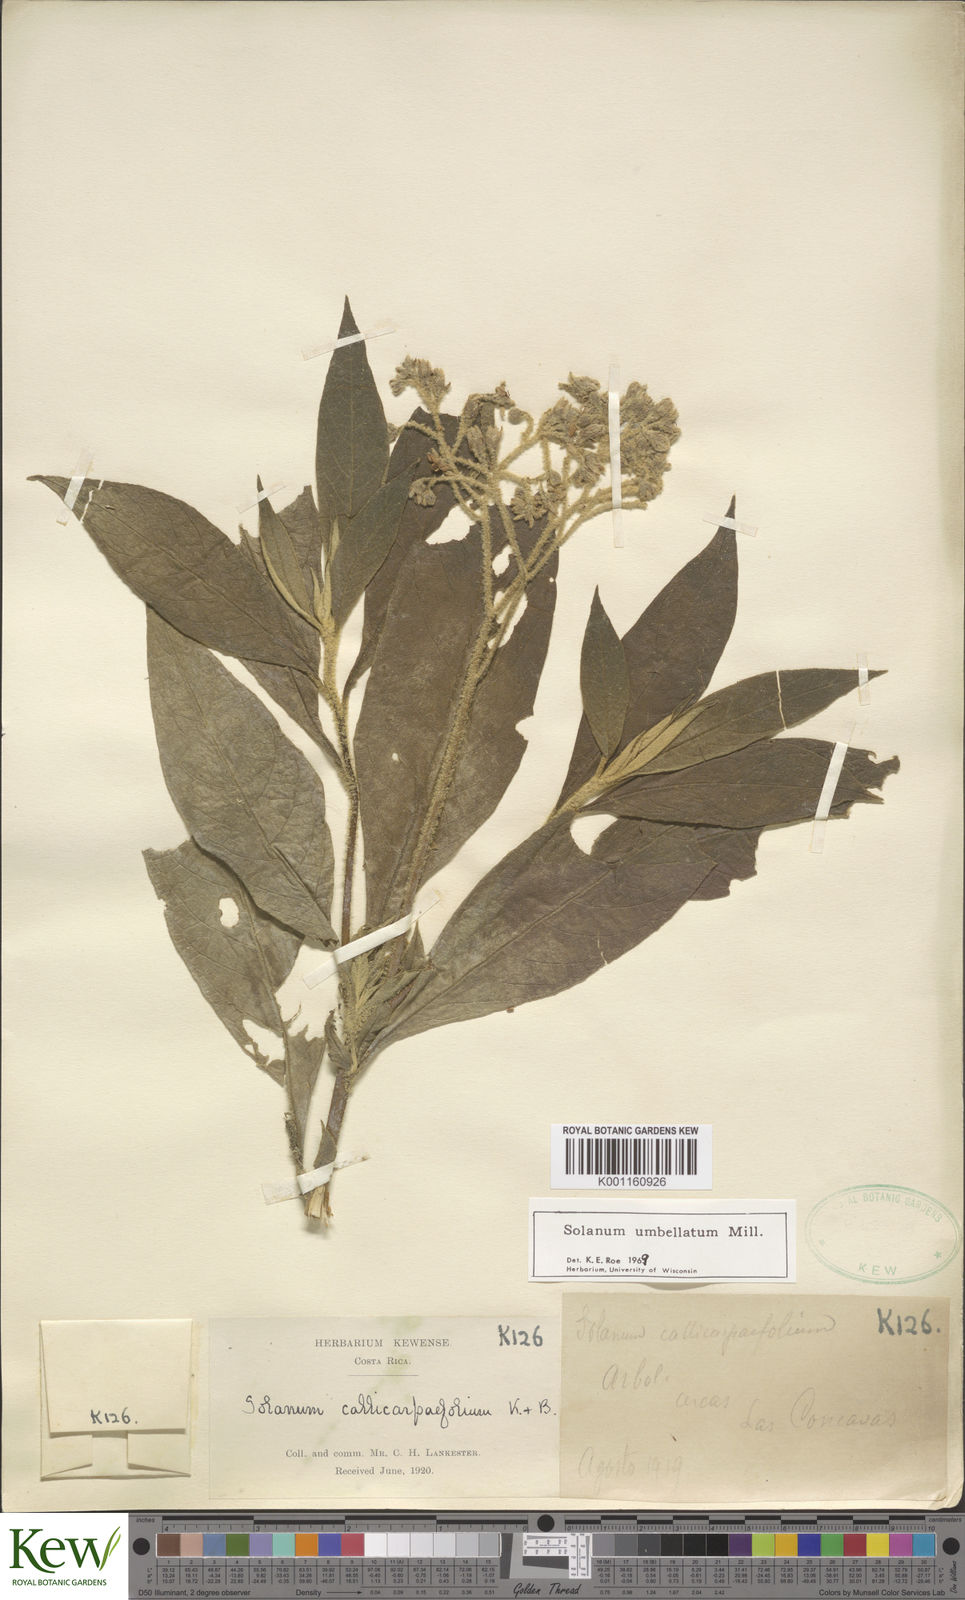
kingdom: Plantae
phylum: Tracheophyta
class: Magnoliopsida
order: Solanales
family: Solanaceae
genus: Solanum
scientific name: Solanum umbellatum
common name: Nightshade
